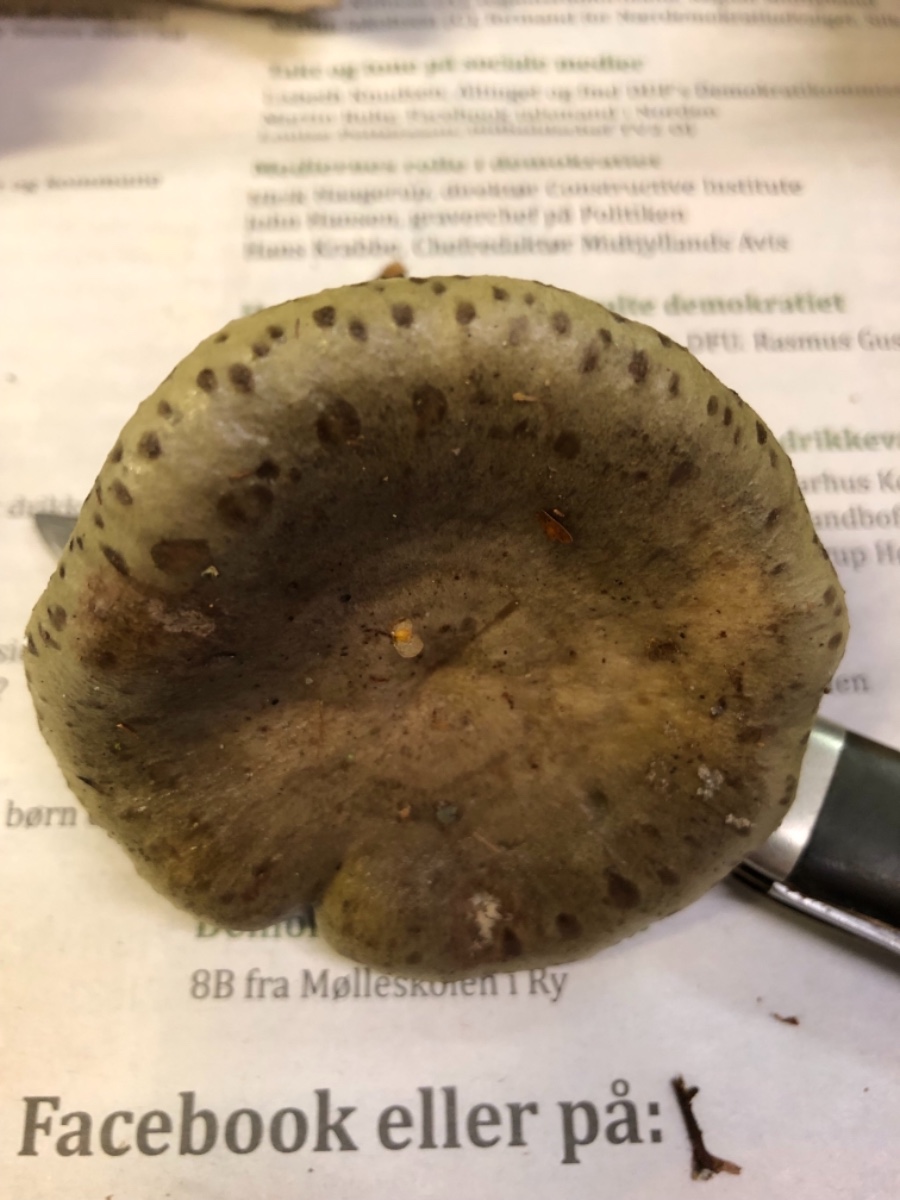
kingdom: Fungi
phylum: Basidiomycota
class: Agaricomycetes
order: Russulales
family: Russulaceae
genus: Lactarius
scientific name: Lactarius blennius
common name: dråbeplettet mælkehat
